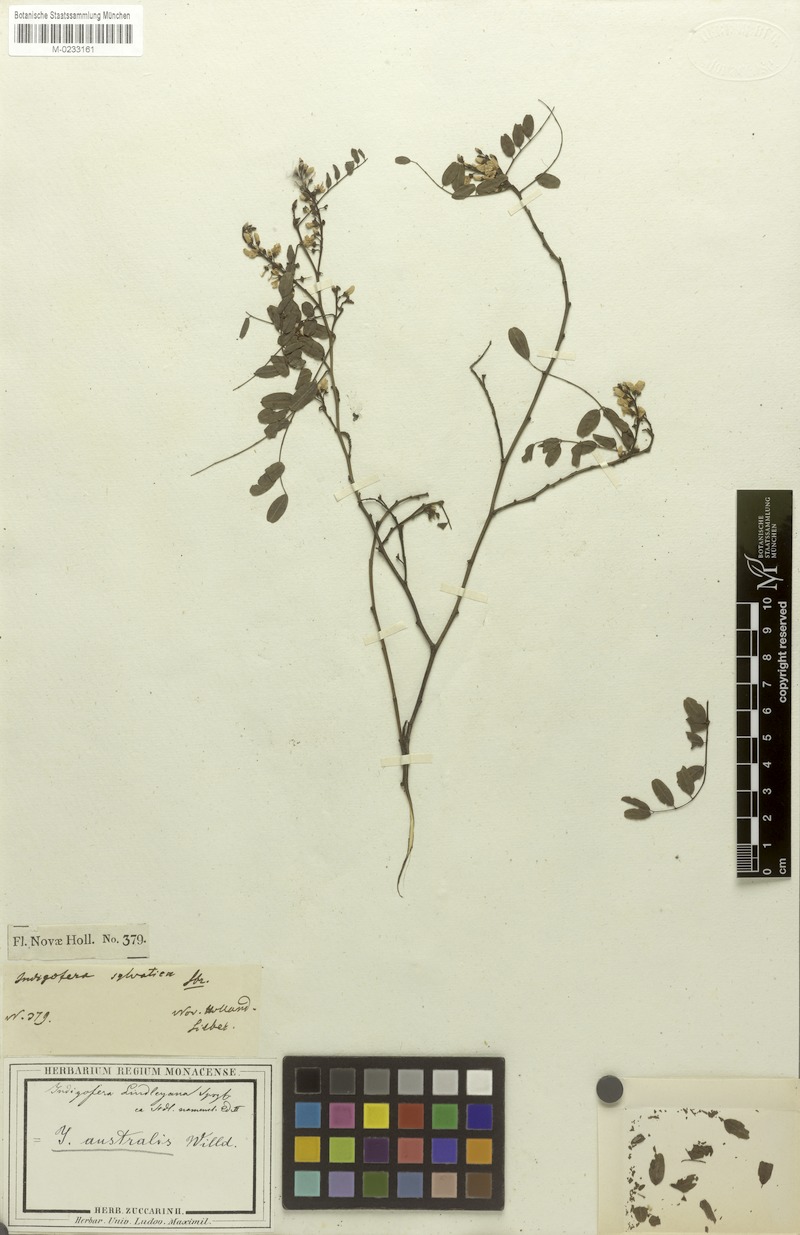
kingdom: Plantae
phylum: Tracheophyta
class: Magnoliopsida
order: Fabales
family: Fabaceae
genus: Indigofera
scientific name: Indigofera australis
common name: Australian indigo
